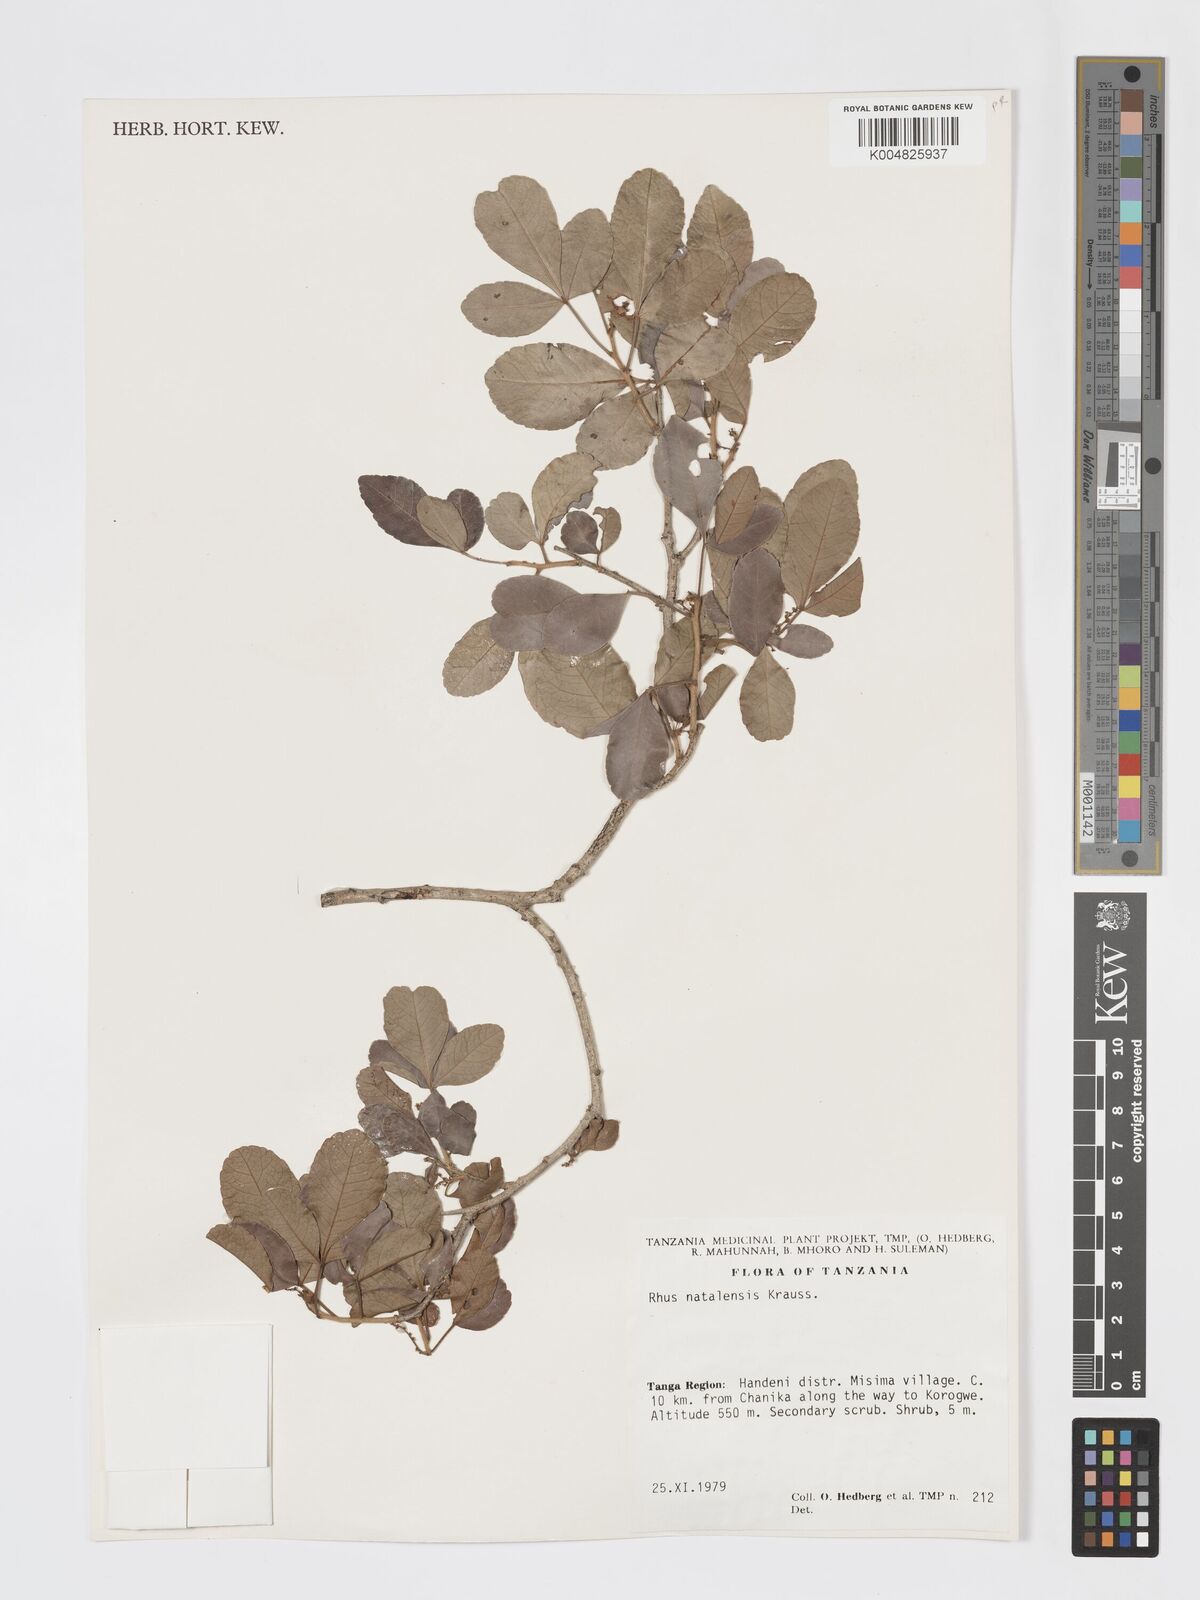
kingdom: Plantae
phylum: Tracheophyta
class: Magnoliopsida
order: Sapindales
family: Anacardiaceae
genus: Searsia
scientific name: Searsia natalensis
